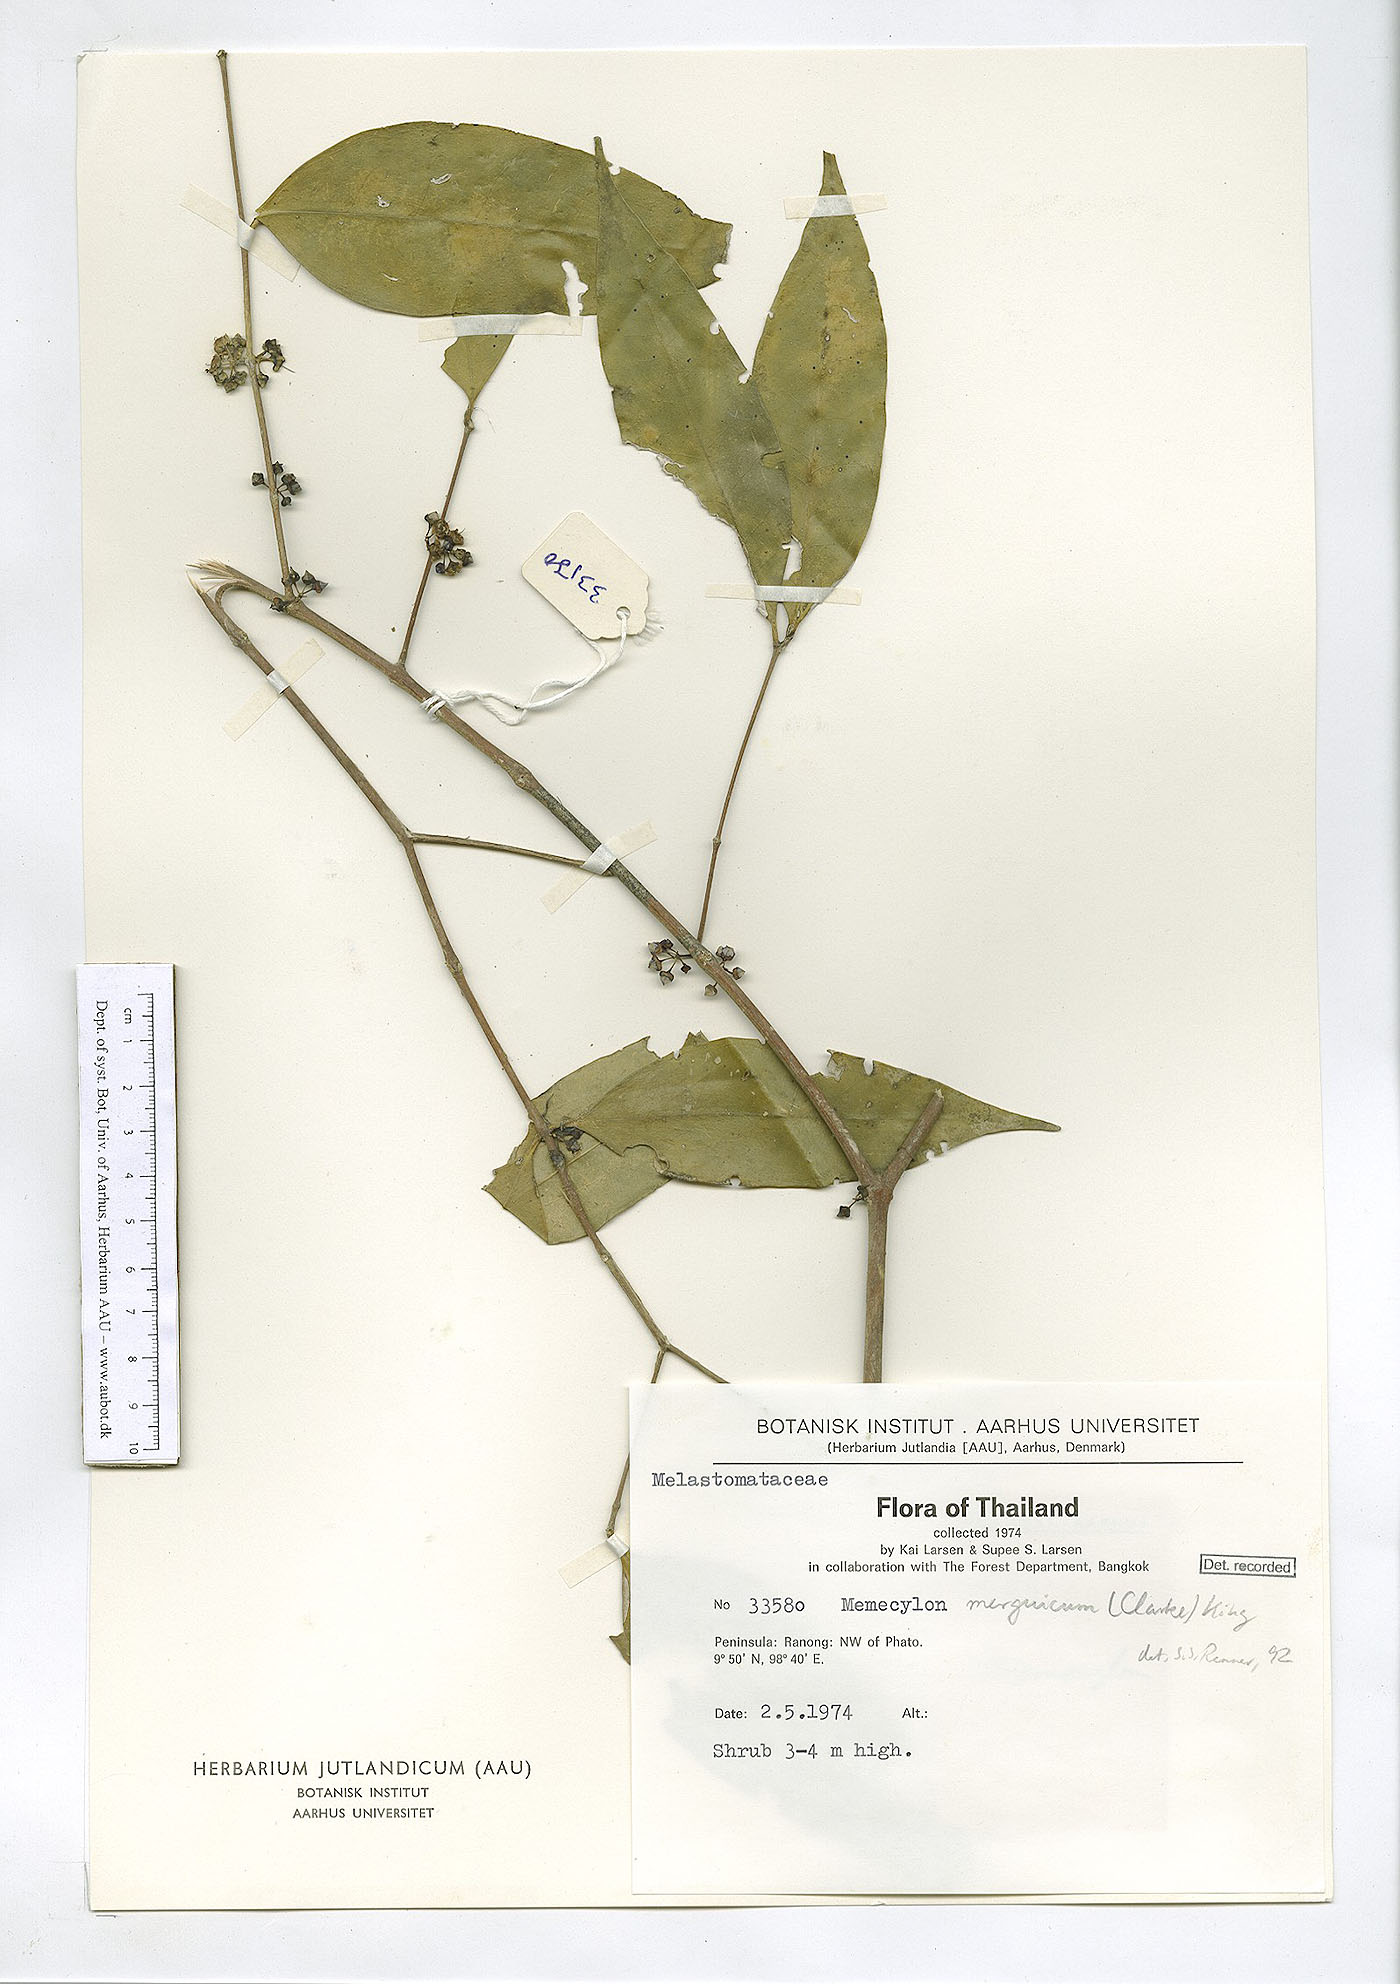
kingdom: Plantae
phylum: Tracheophyta
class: Magnoliopsida
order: Myrtales
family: Melastomataceae
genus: Memecylon
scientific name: Memecylon merguicum
